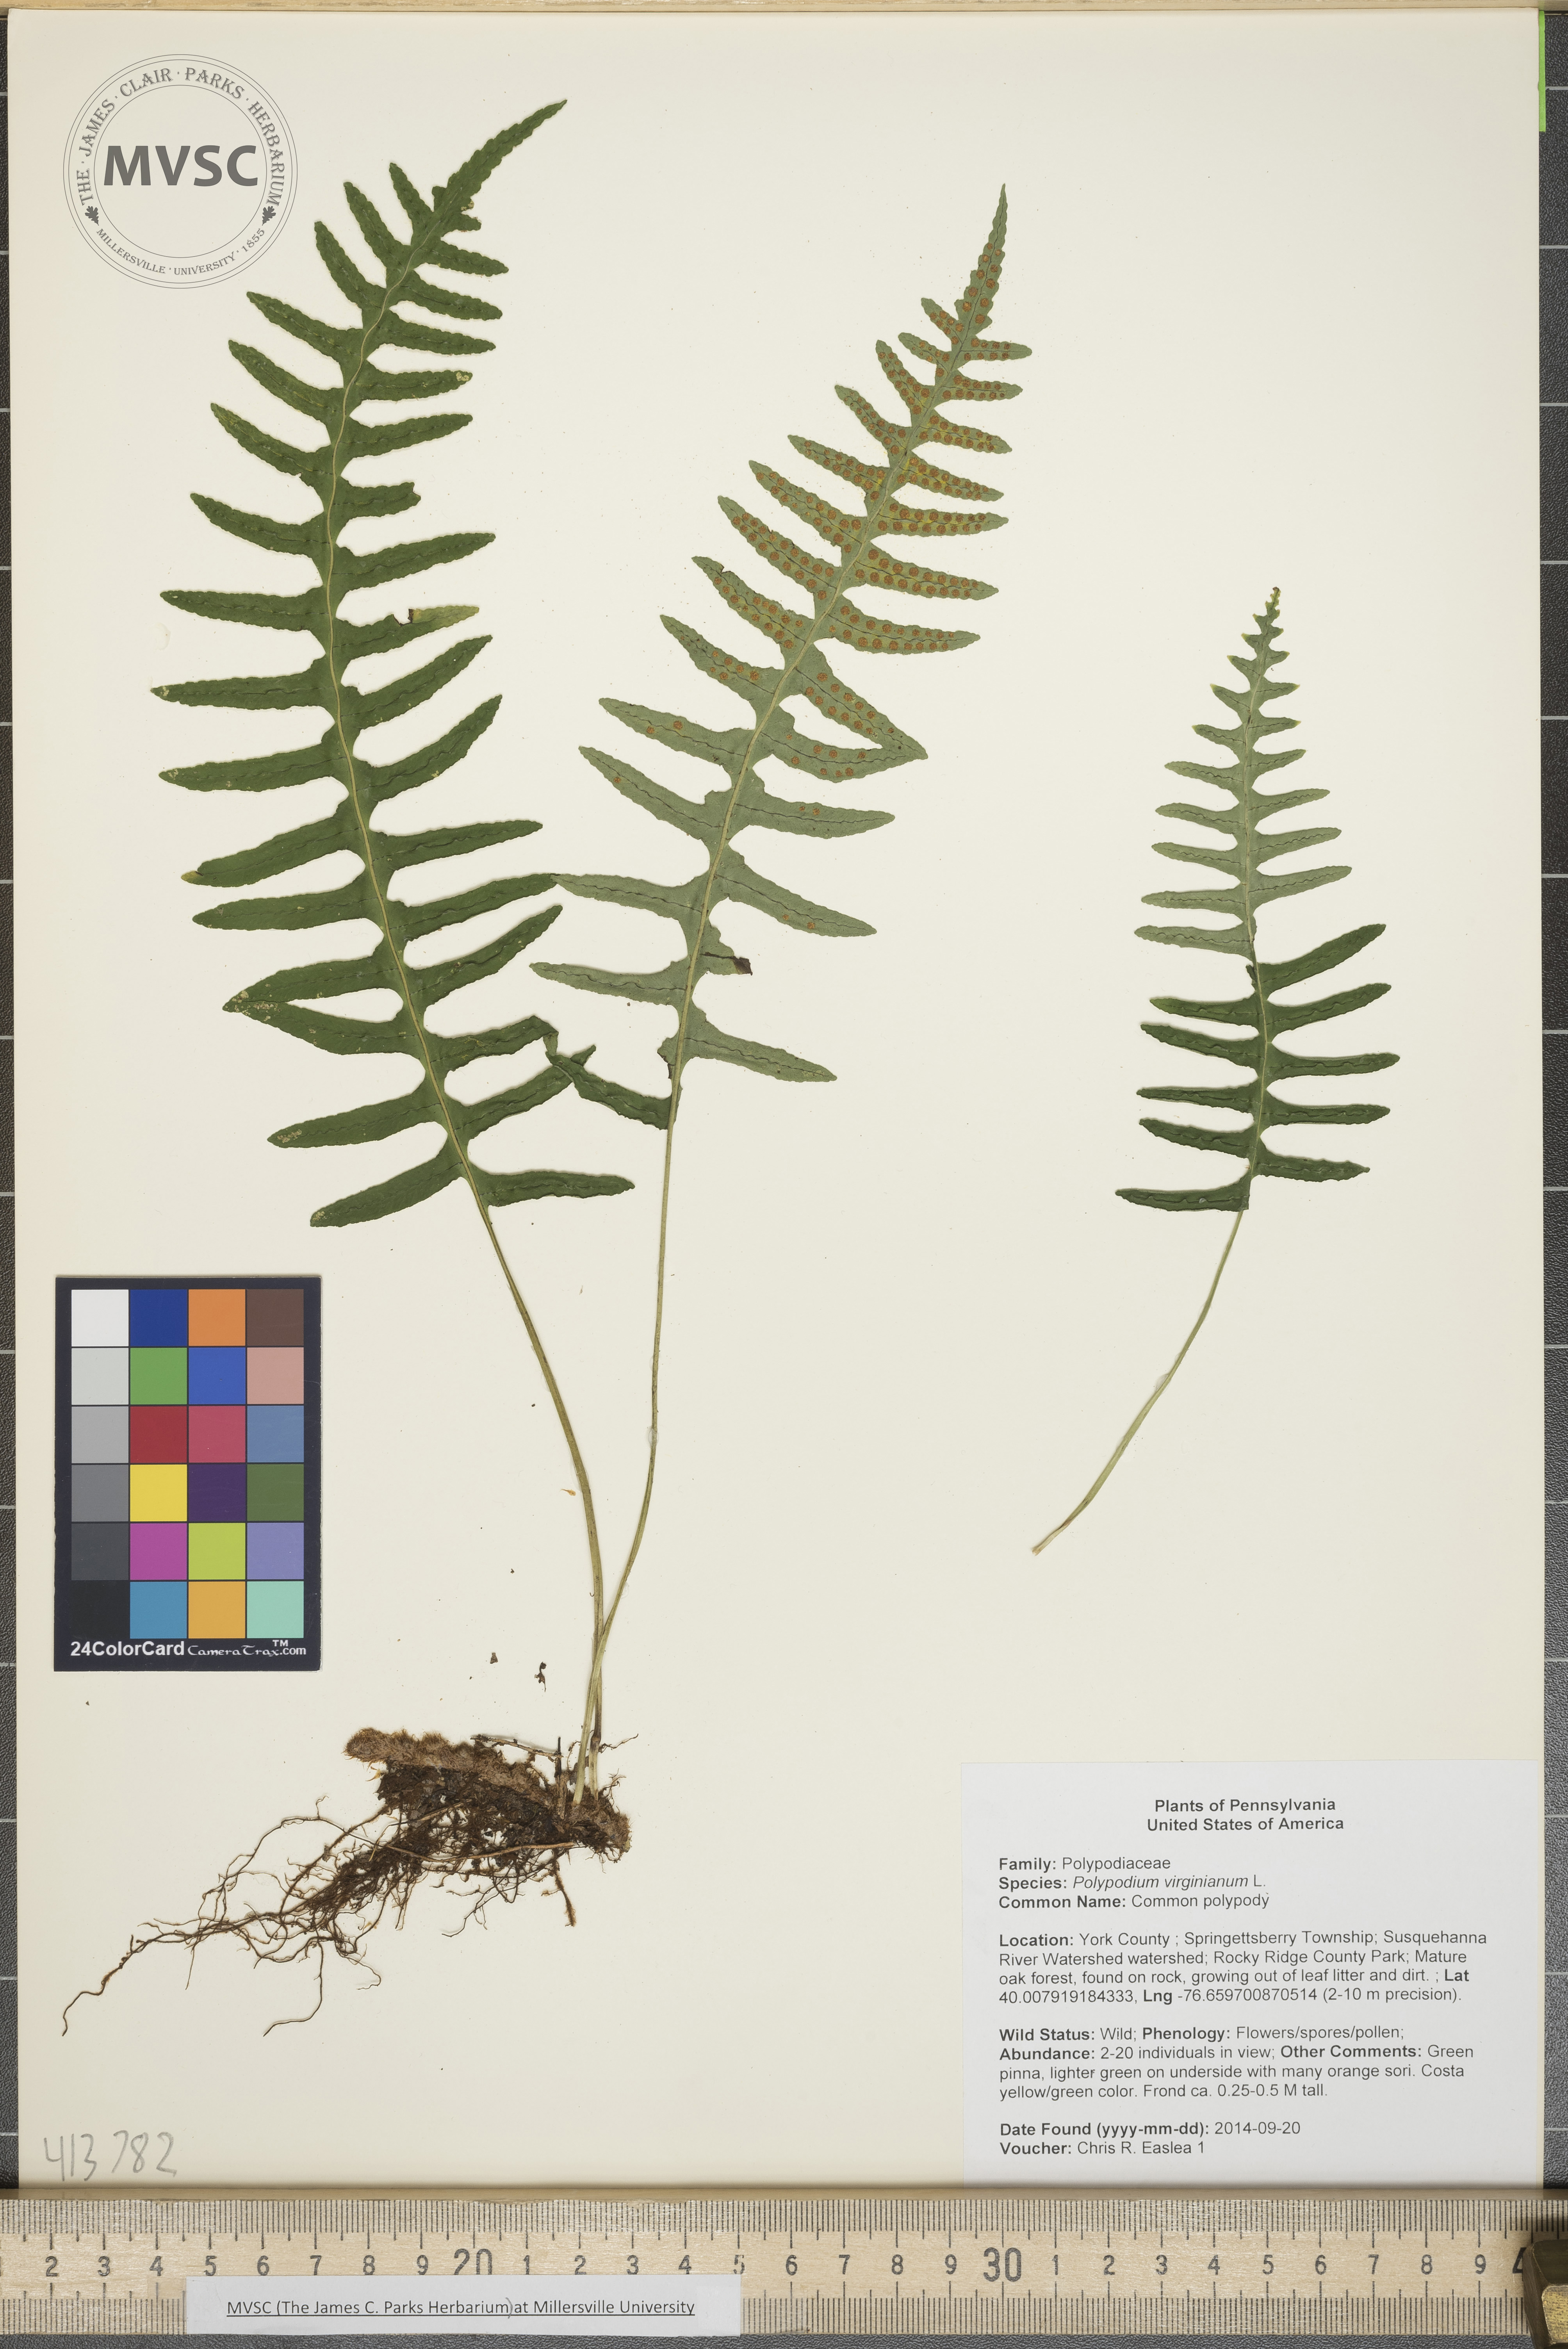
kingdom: Plantae
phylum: Tracheophyta
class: Polypodiopsida
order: Polypodiales
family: Polypodiaceae
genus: Polypodium
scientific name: Polypodium virginianum
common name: Common polypody
